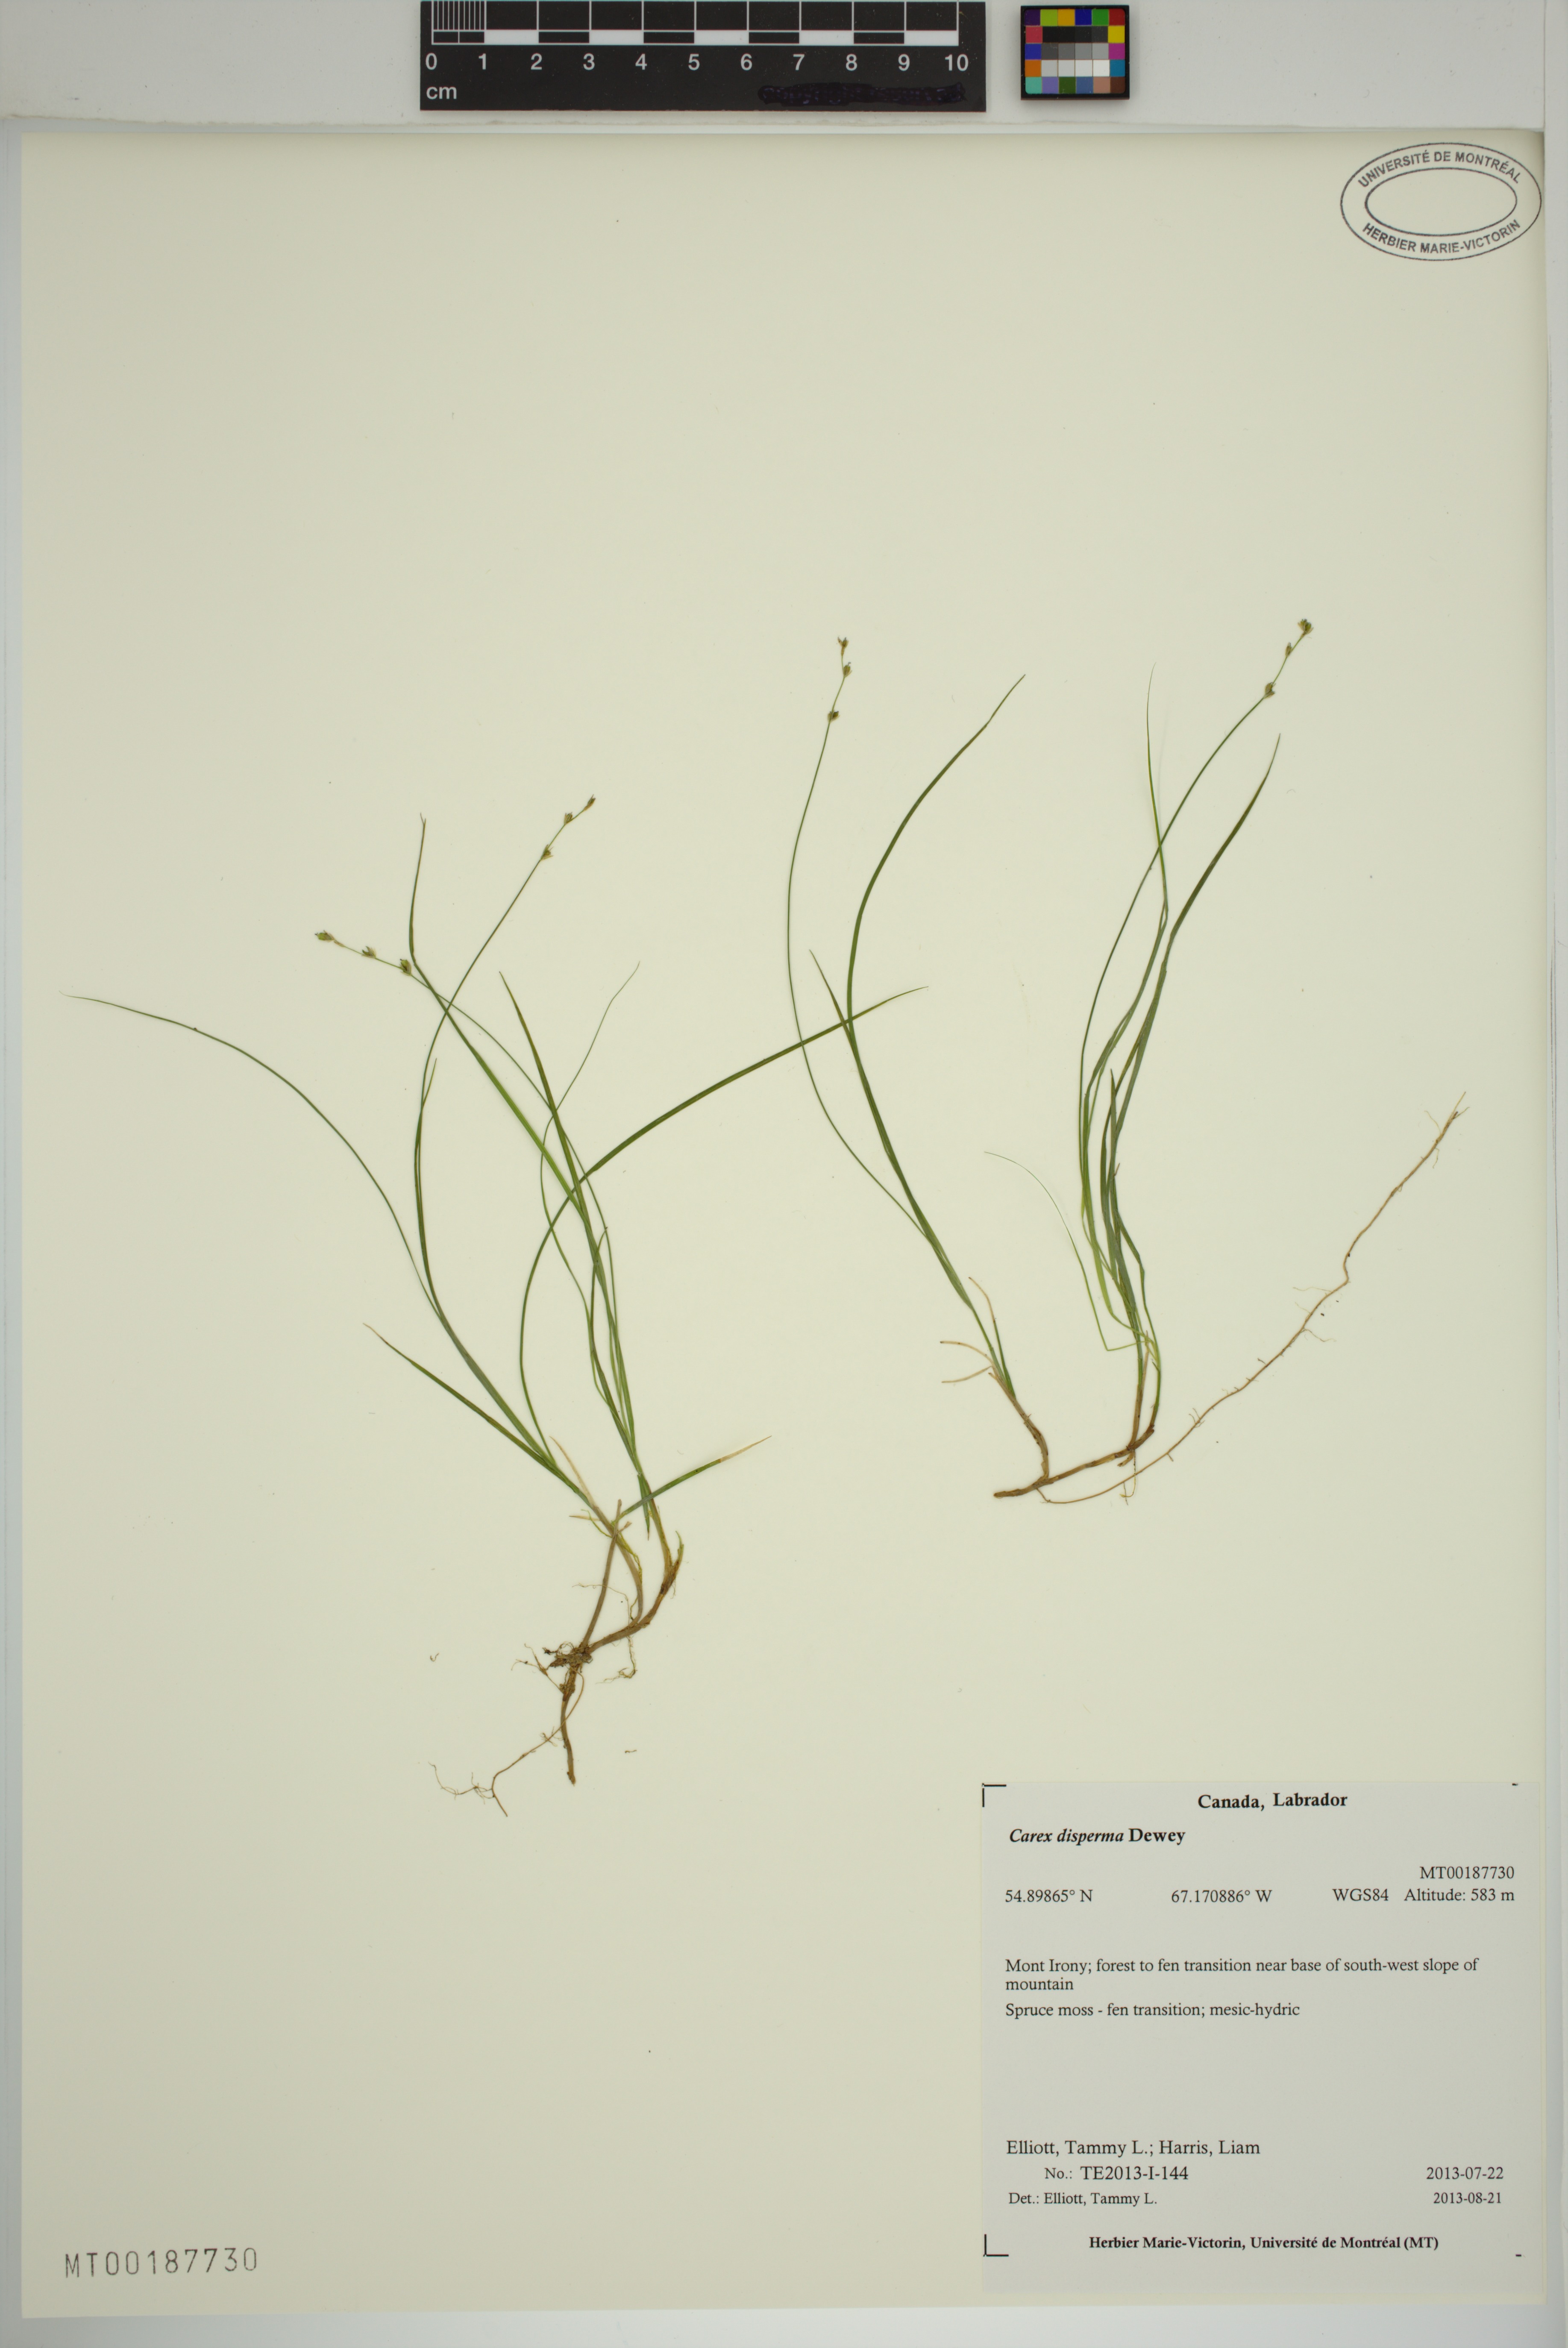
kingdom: Plantae
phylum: Tracheophyta
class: Liliopsida
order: Poales
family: Cyperaceae
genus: Carex
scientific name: Carex disperma
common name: Short-leaved sedge
